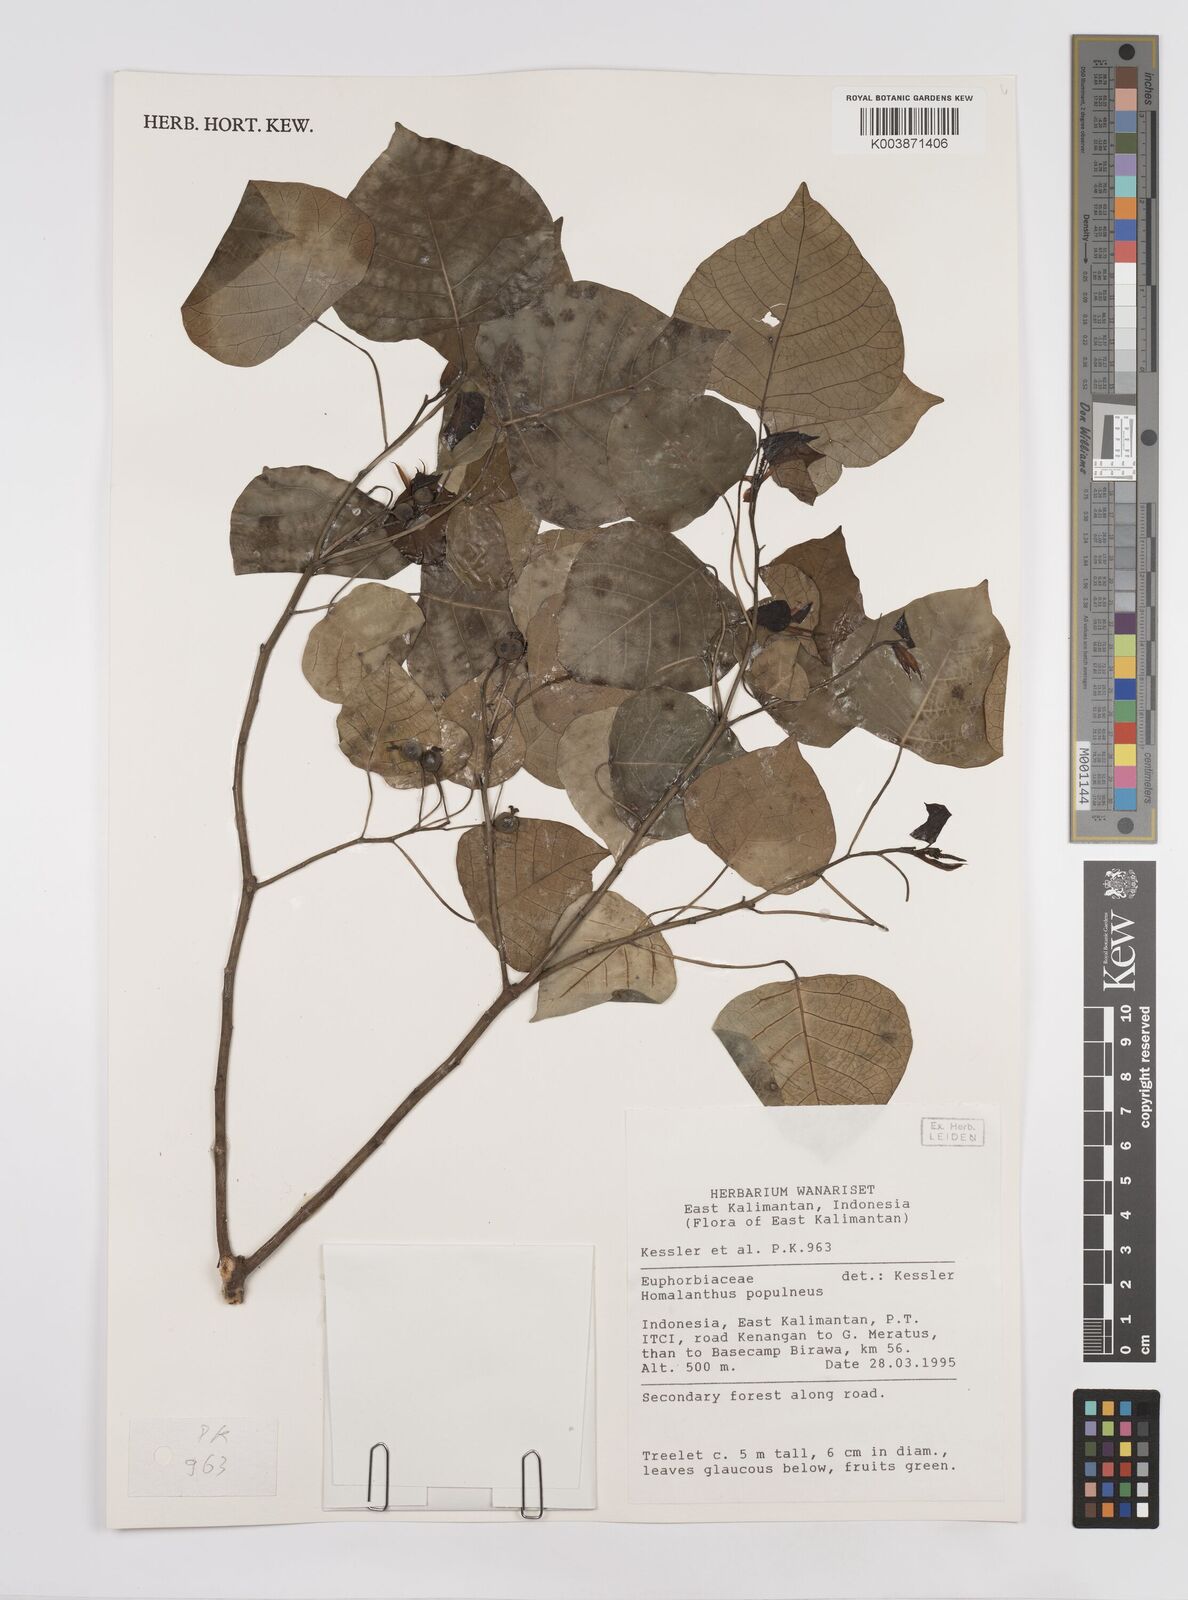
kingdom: Plantae
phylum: Tracheophyta
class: Magnoliopsida
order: Malpighiales
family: Euphorbiaceae
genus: Homalanthus
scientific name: Homalanthus populneus
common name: Spurge
